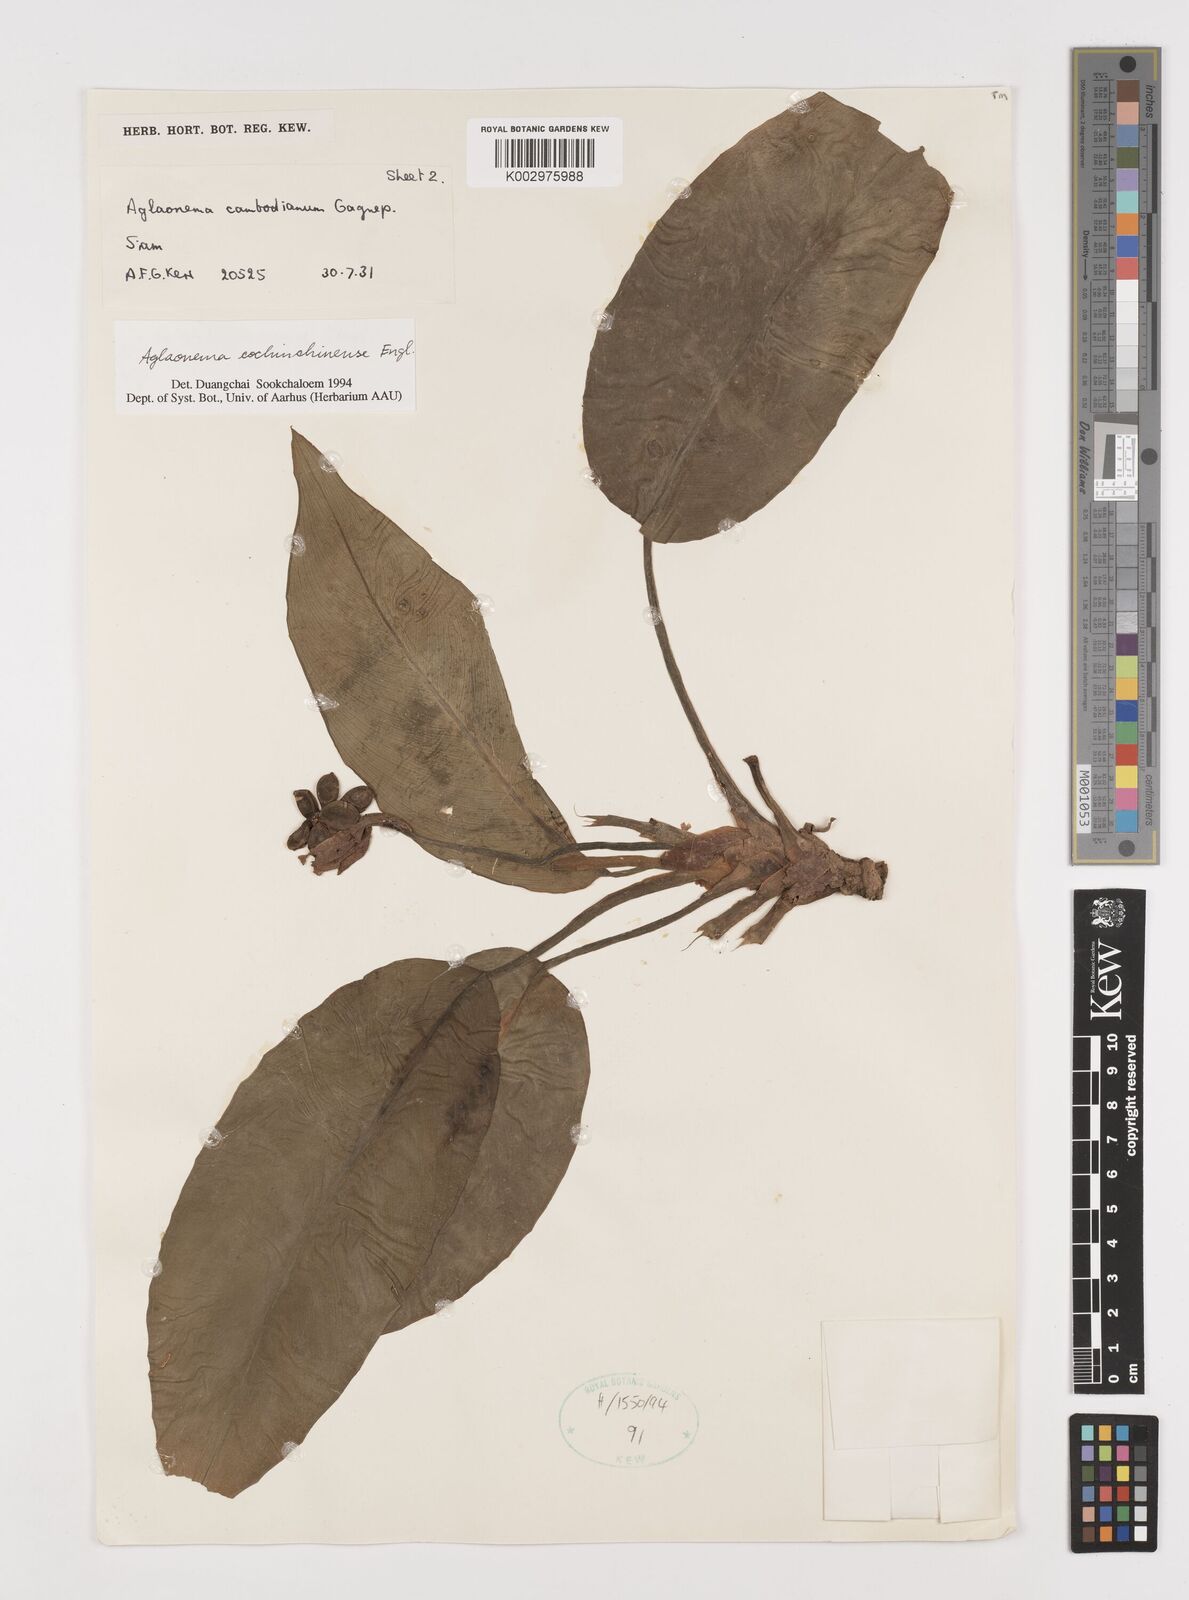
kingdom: Plantae
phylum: Tracheophyta
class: Liliopsida
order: Alismatales
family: Araceae
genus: Aglaonema
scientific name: Aglaonema cochinchinense
